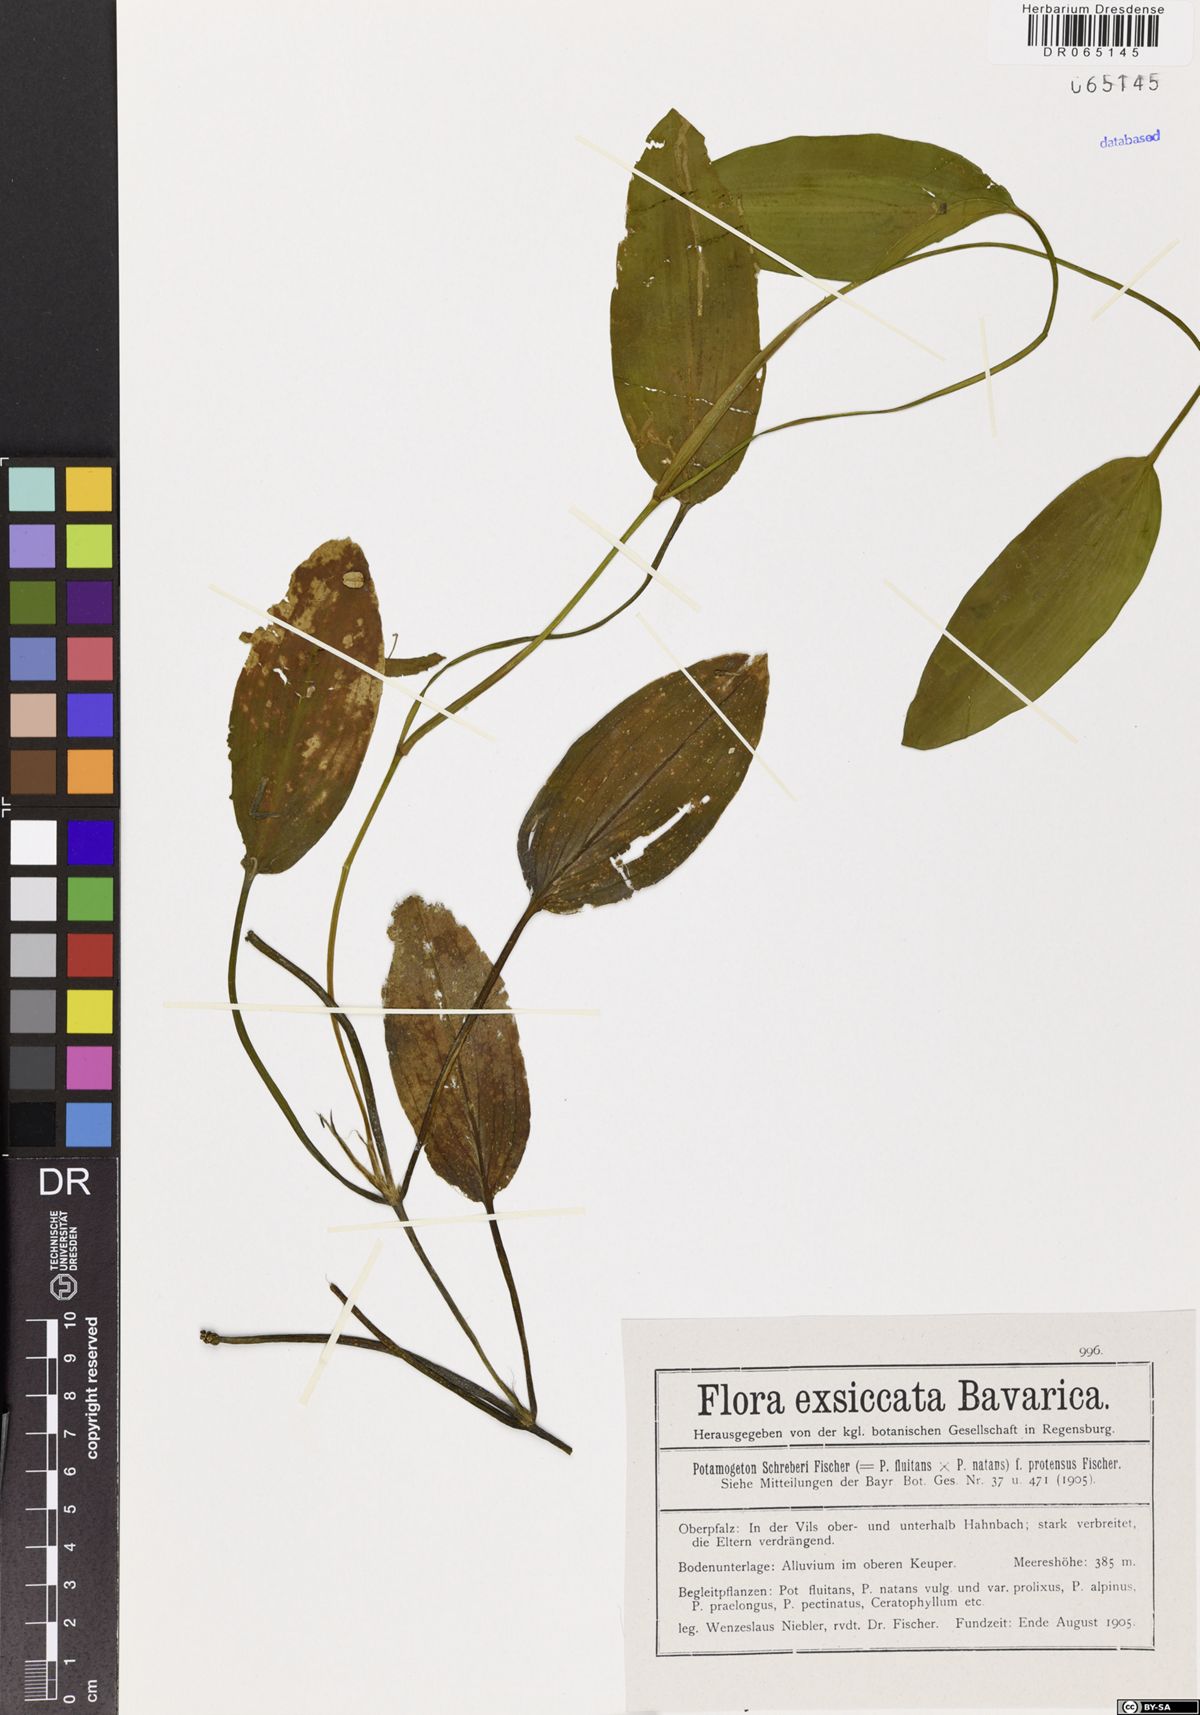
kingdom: Plantae
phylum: Tracheophyta
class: Liliopsida
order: Alismatales
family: Potamogetonaceae
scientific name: Potamogetonaceae
